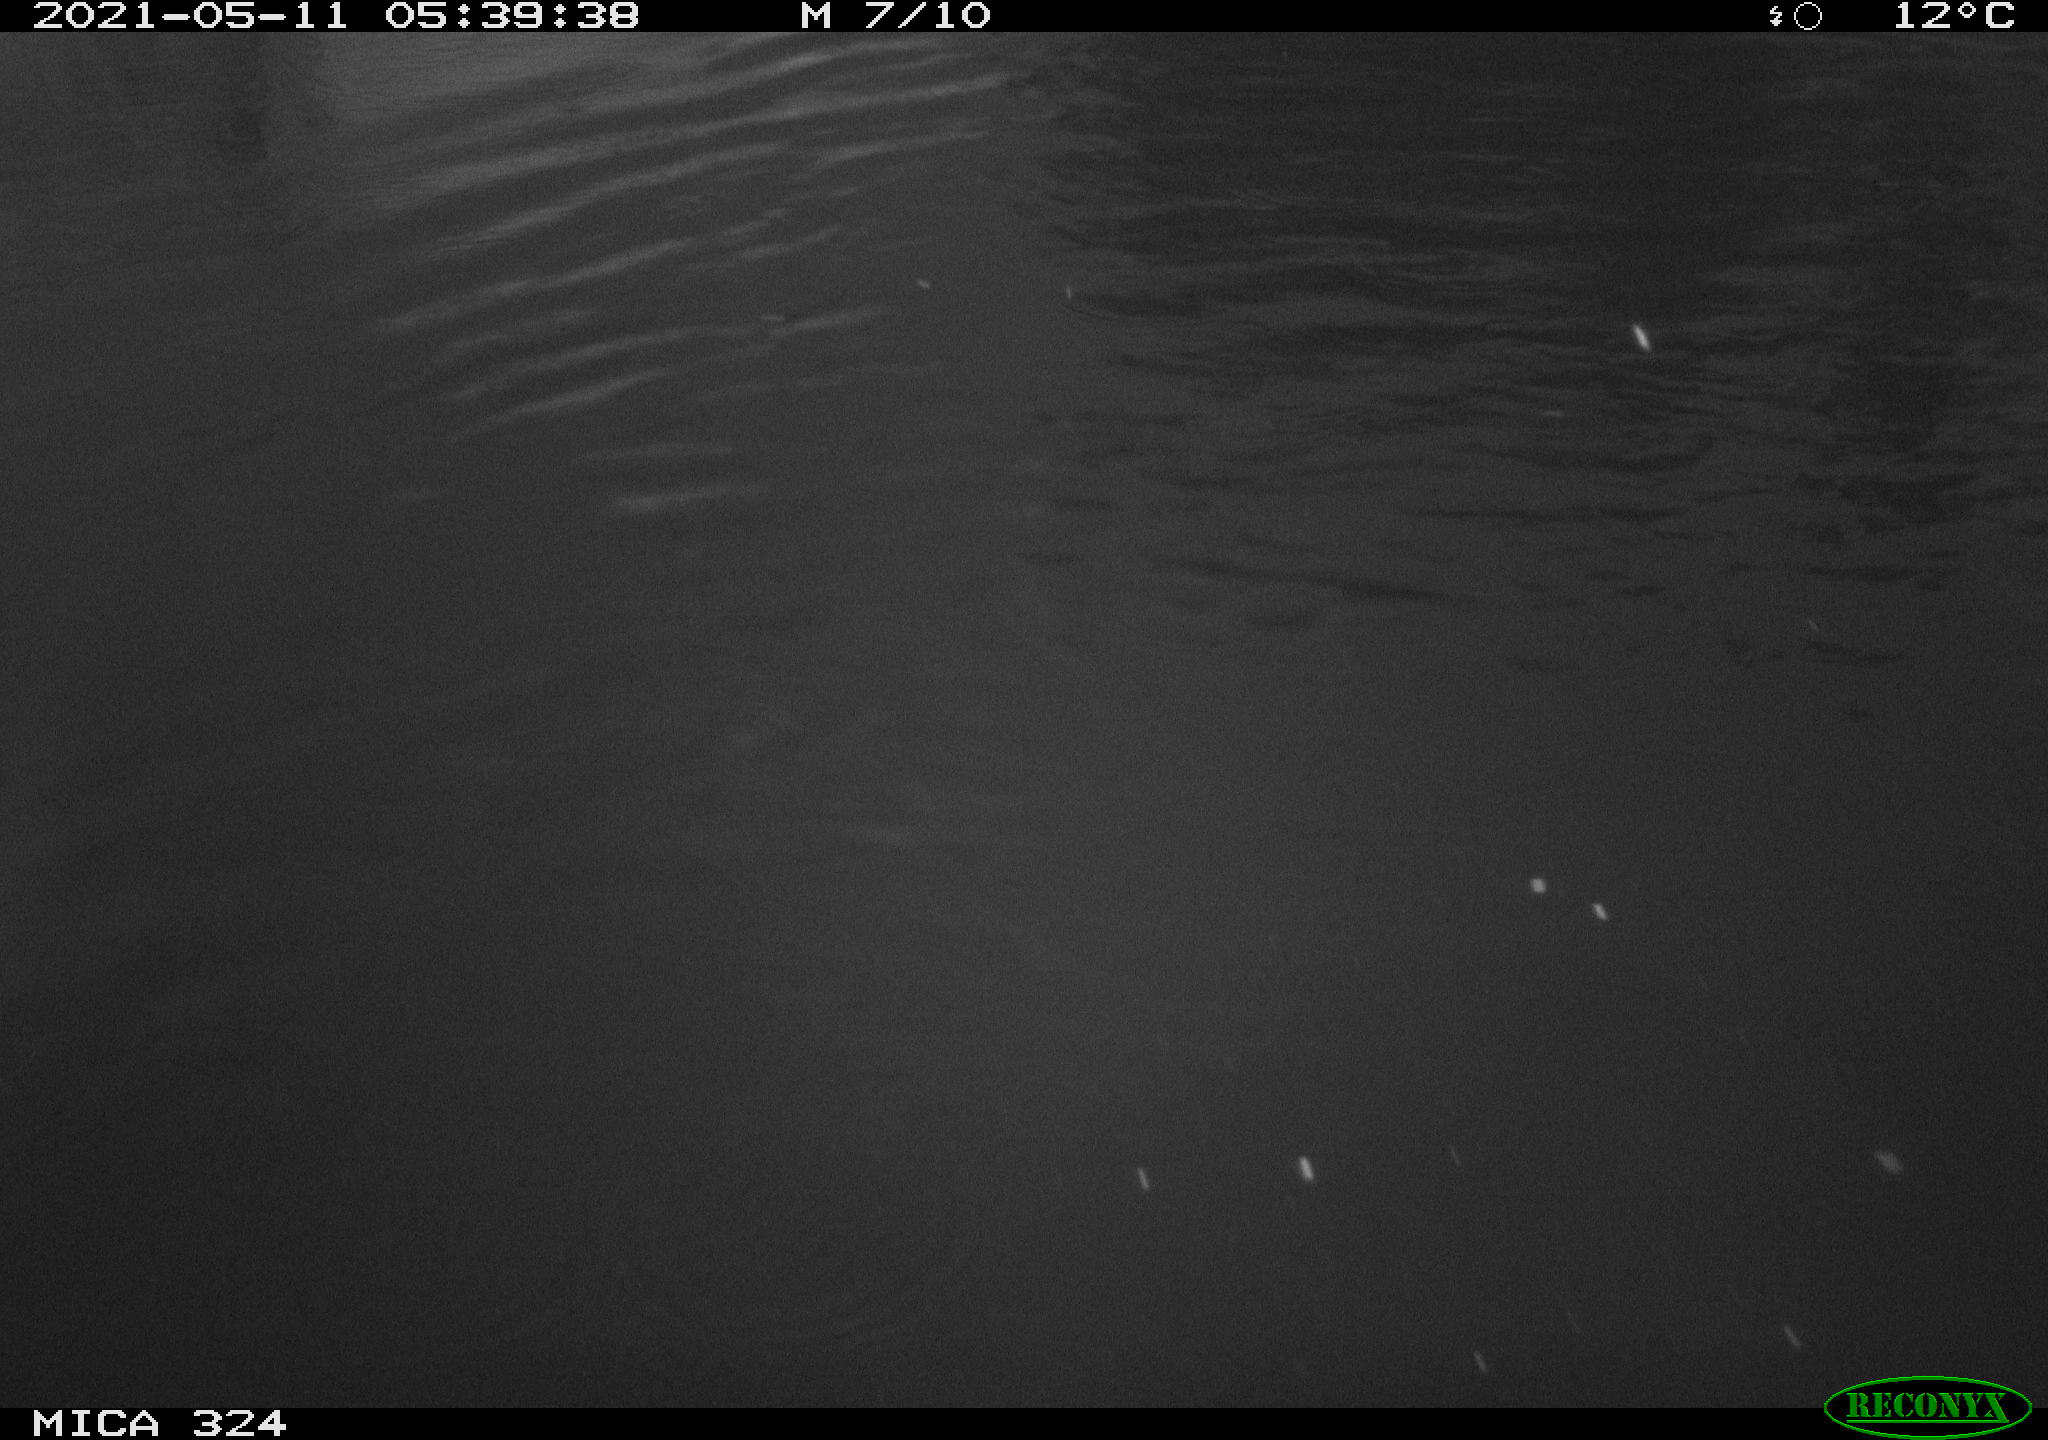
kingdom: Animalia
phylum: Chordata
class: Aves
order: Anseriformes
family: Anatidae
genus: Anas
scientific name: Anas
